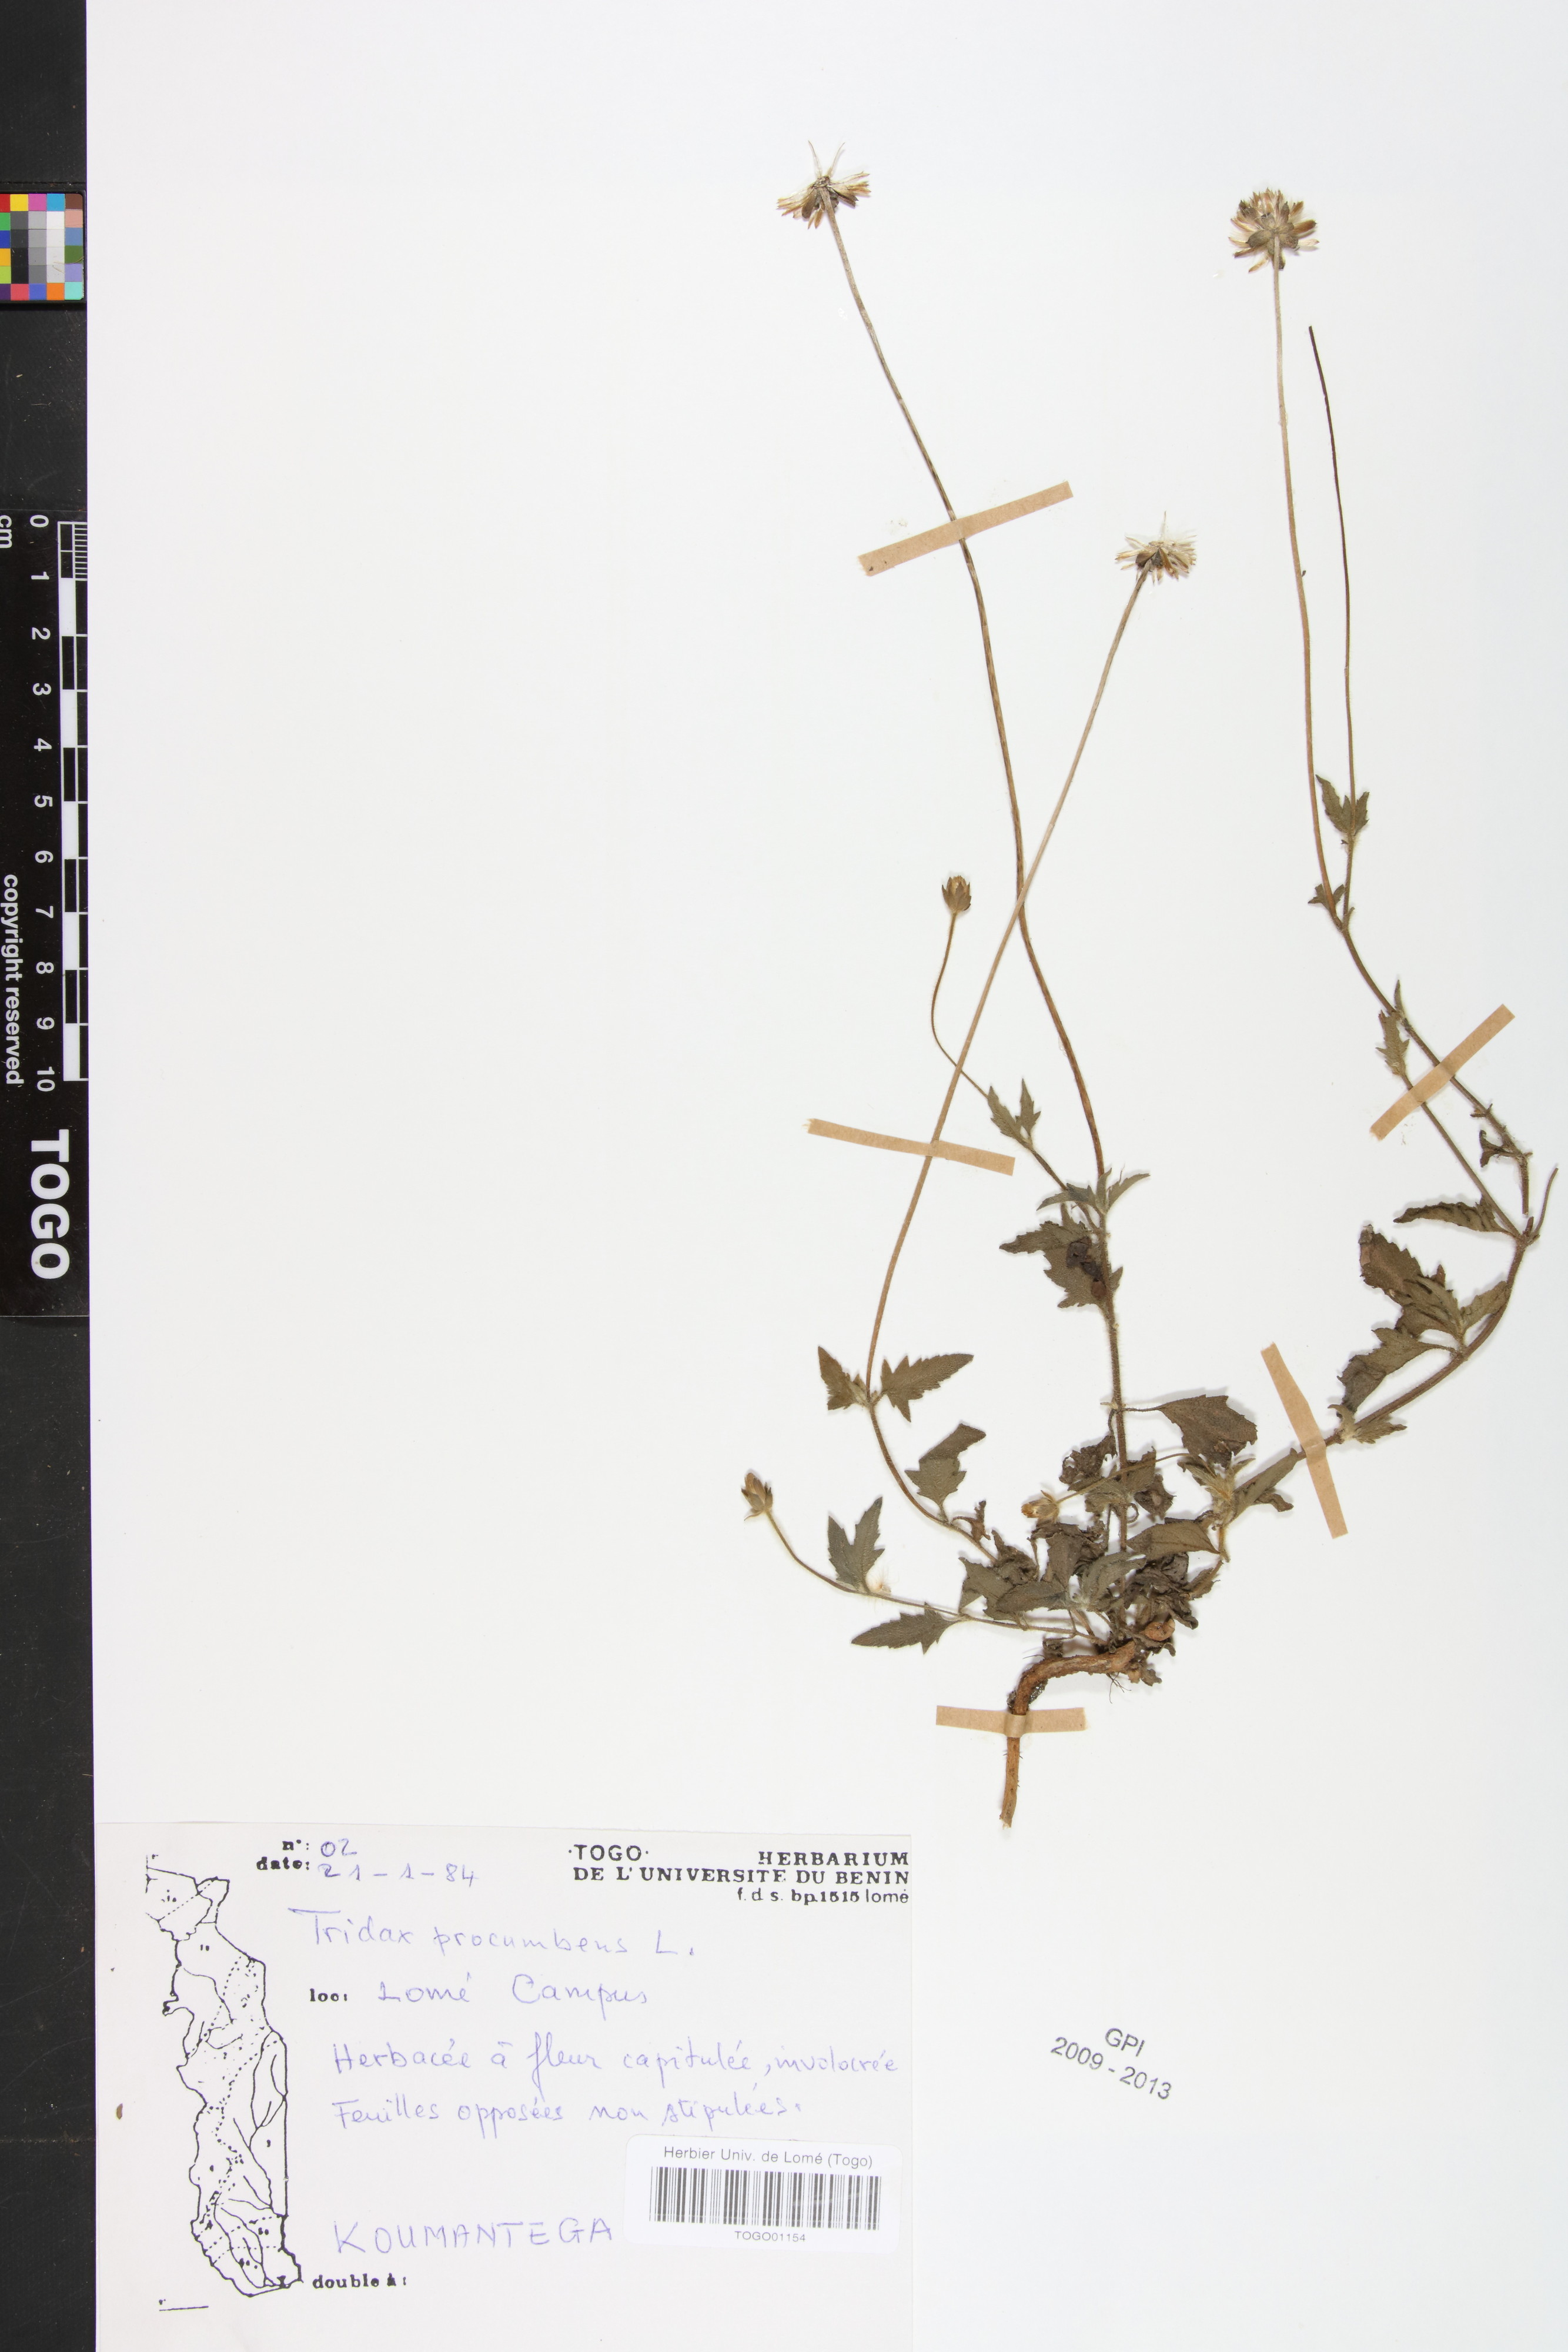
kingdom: Plantae
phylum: Tracheophyta
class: Magnoliopsida
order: Asterales
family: Asteraceae
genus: Tridax
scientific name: Tridax procumbens
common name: Coatbuttons
